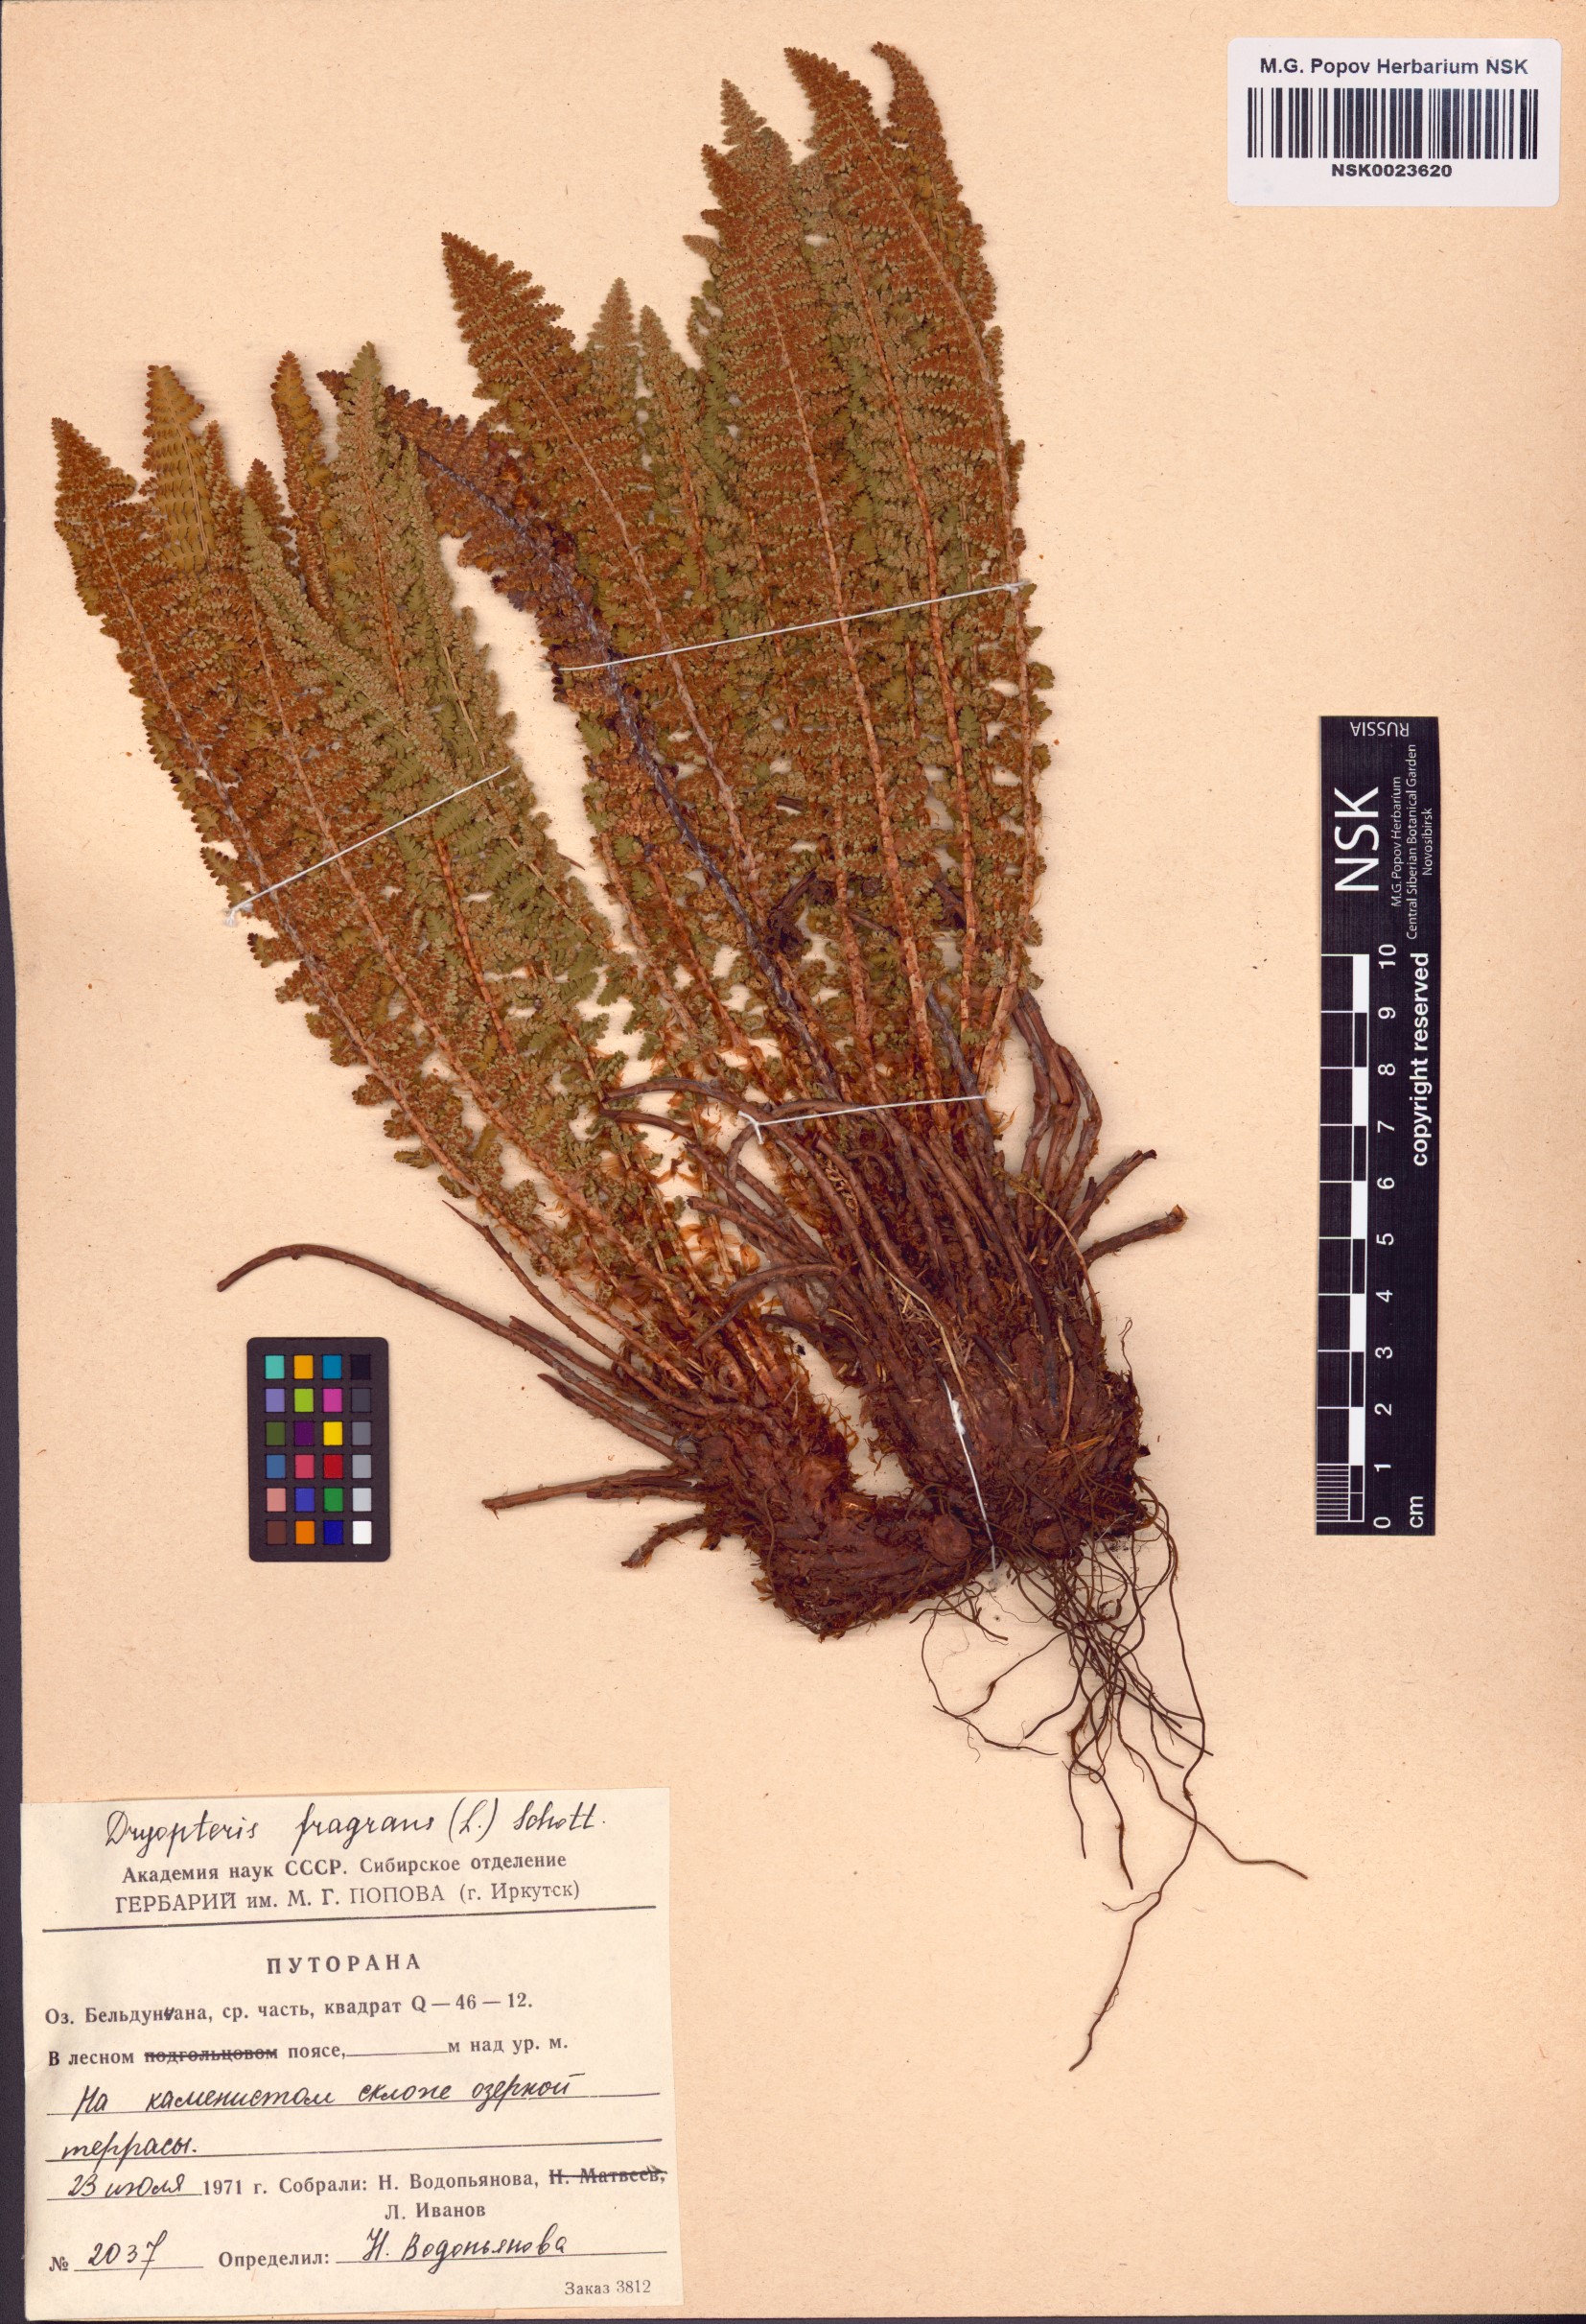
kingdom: Plantae
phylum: Tracheophyta
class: Polypodiopsida
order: Polypodiales
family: Dryopteridaceae
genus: Dryopteris
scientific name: Dryopteris fragrans
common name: Fragrant wood fern
